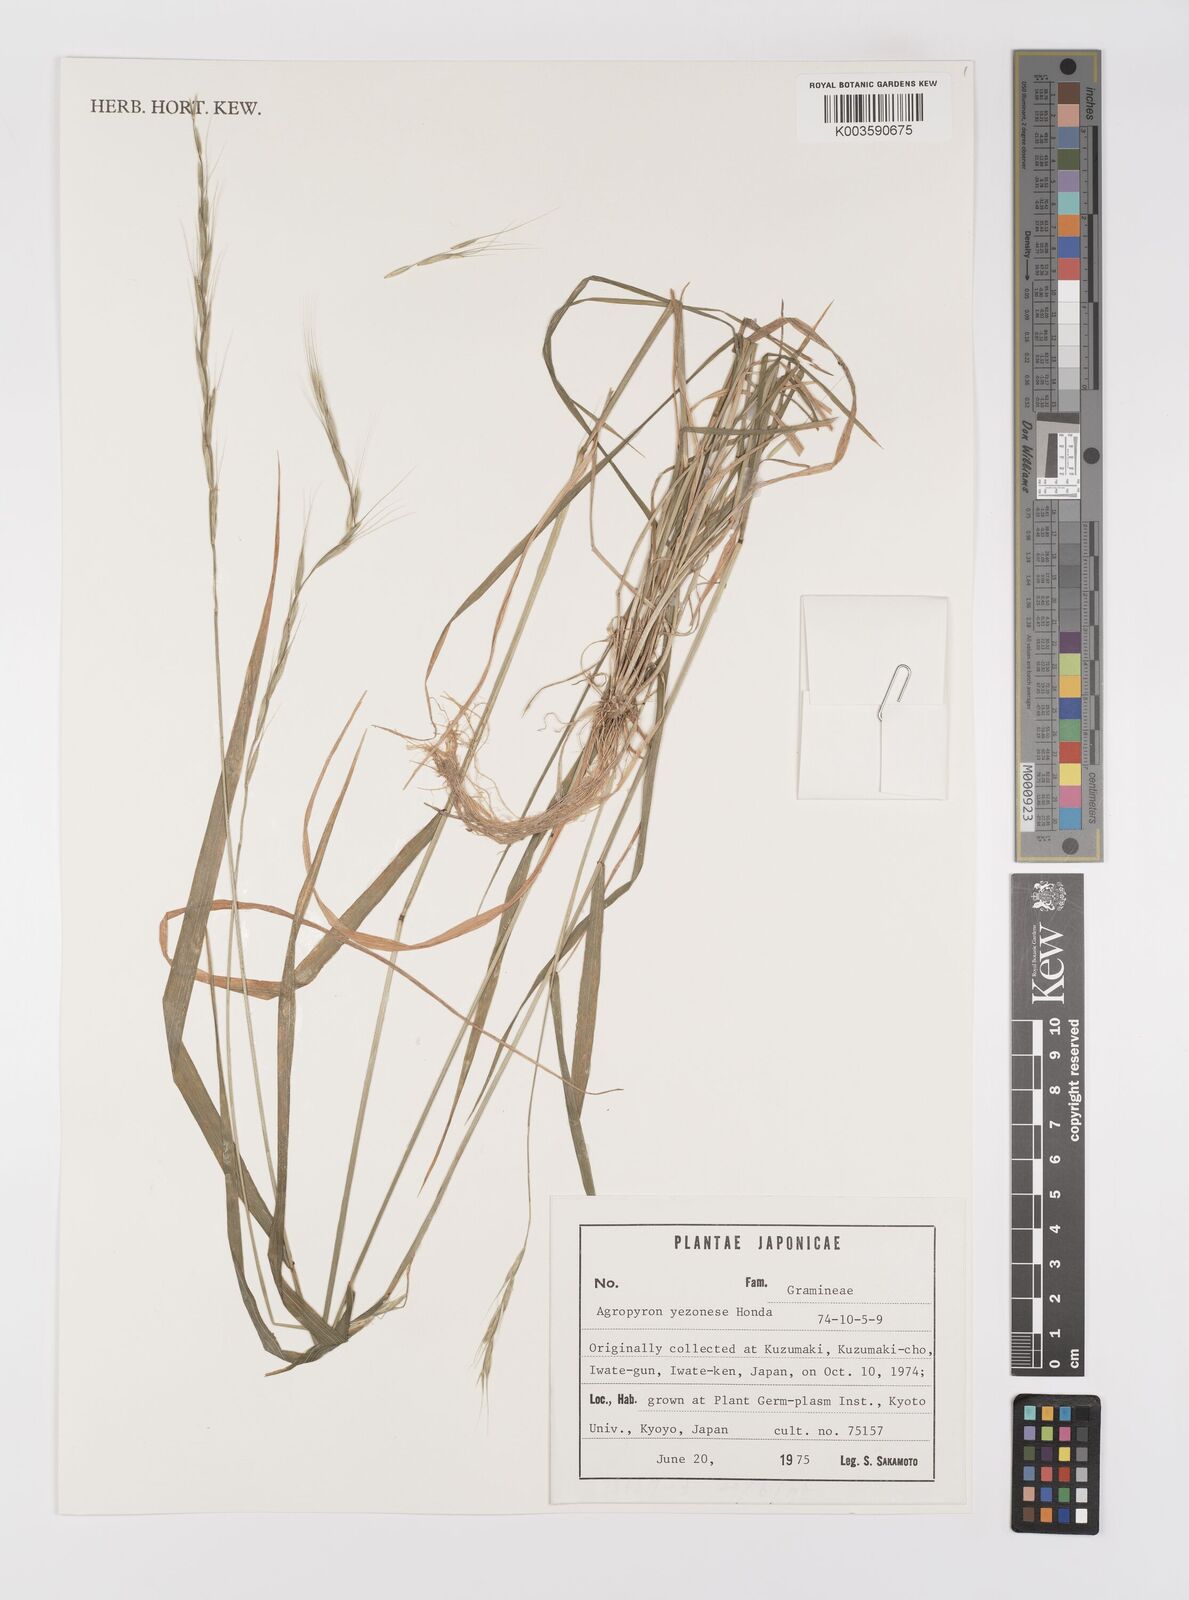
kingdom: Plantae
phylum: Tracheophyta
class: Liliopsida
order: Poales
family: Poaceae
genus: Elymus
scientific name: Elymus nipponicus
